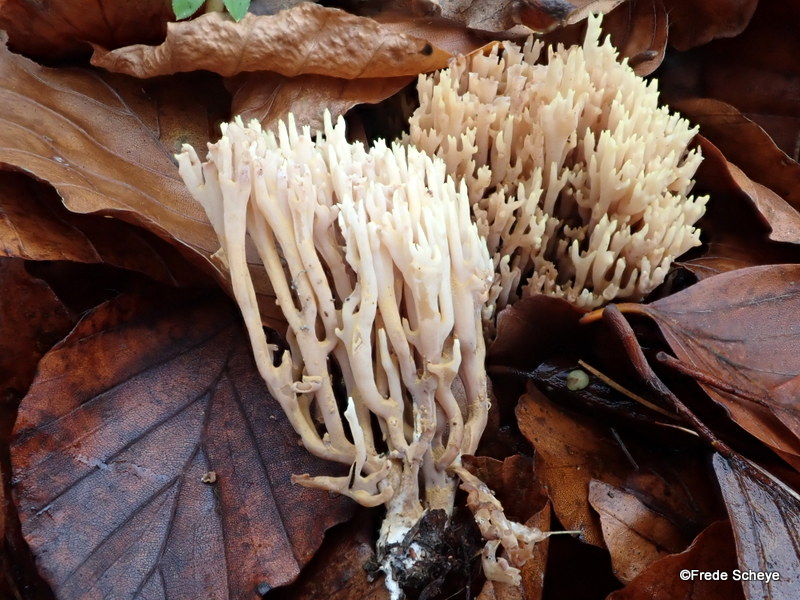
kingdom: Fungi
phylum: Basidiomycota
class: Agaricomycetes
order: Gomphales
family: Gomphaceae
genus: Ramaria
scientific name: Ramaria stricta
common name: rank koralsvamp
